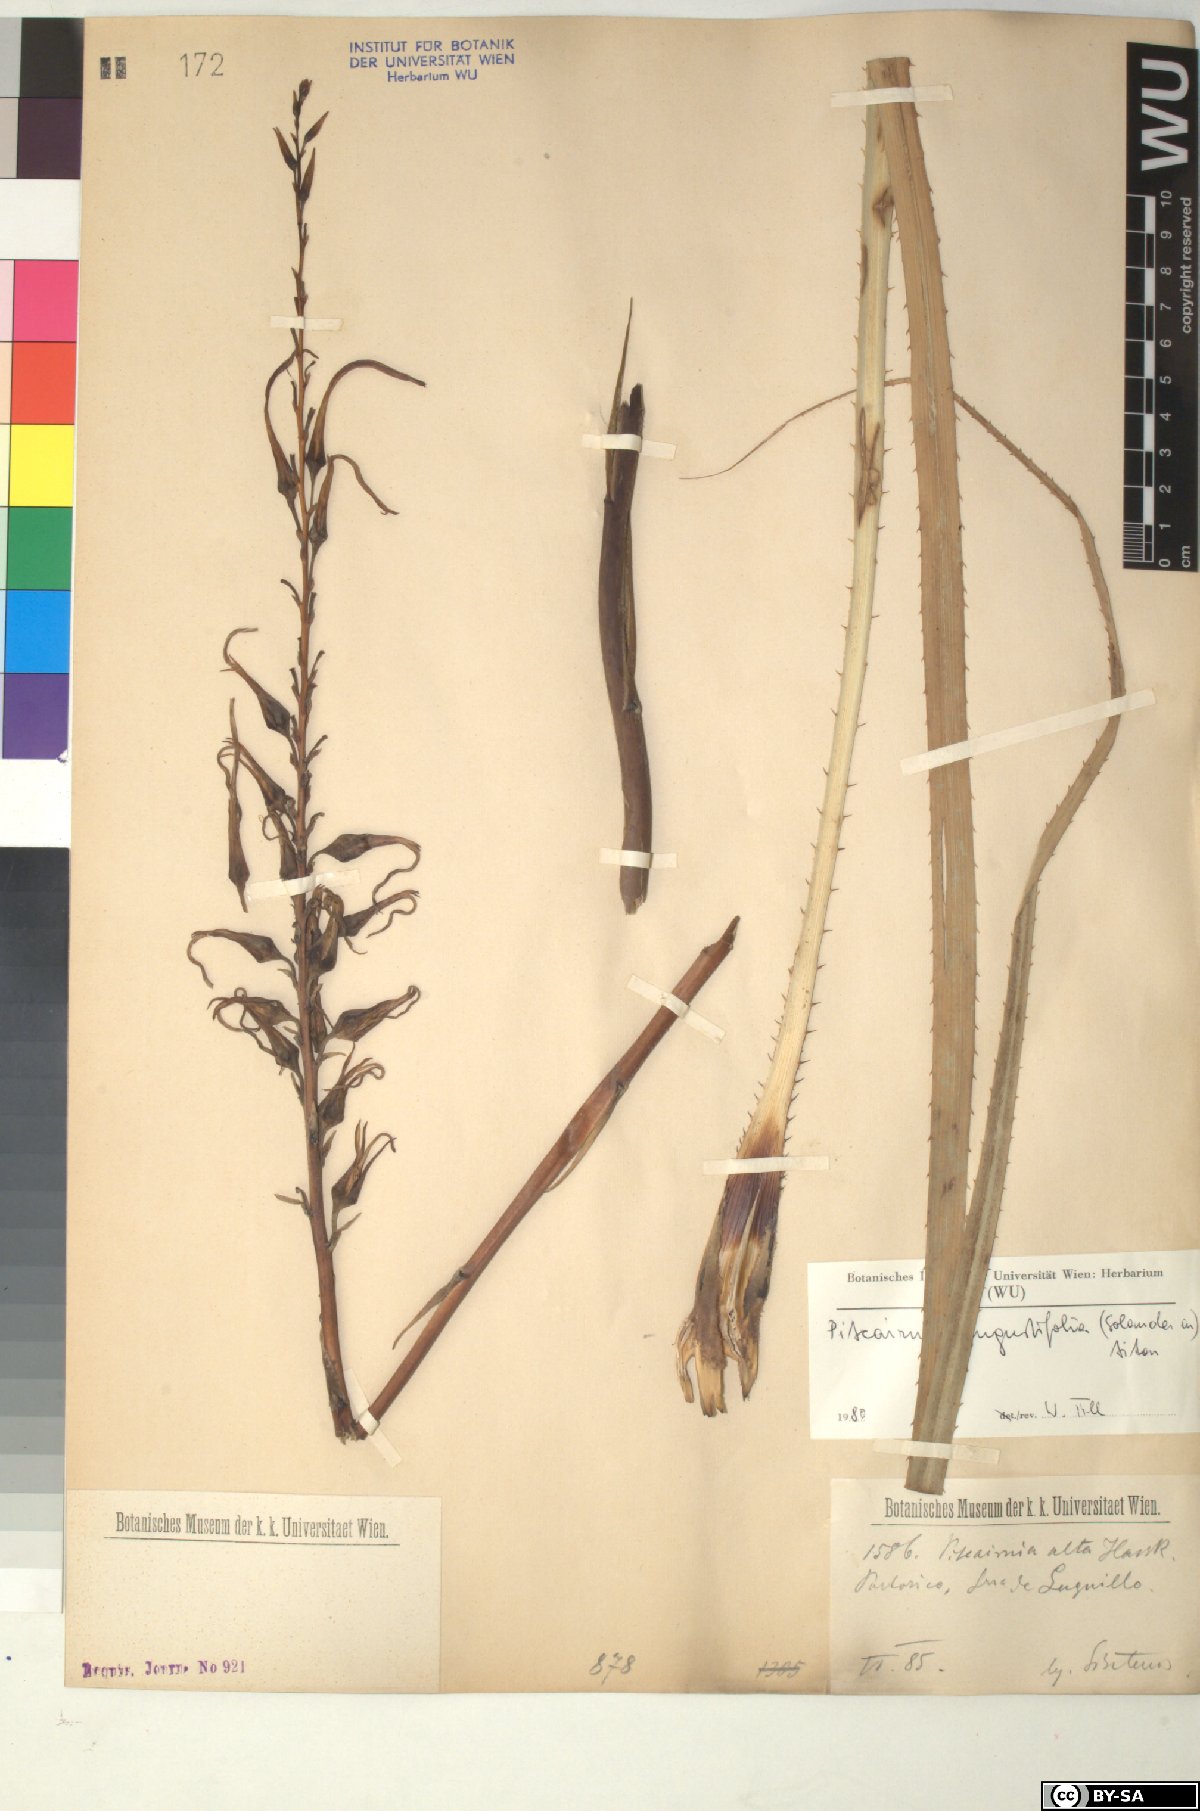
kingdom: Plantae
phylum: Tracheophyta
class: Liliopsida
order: Poales
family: Bromeliaceae
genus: Pitcairnia
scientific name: Pitcairnia angustifolia
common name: Clapper
